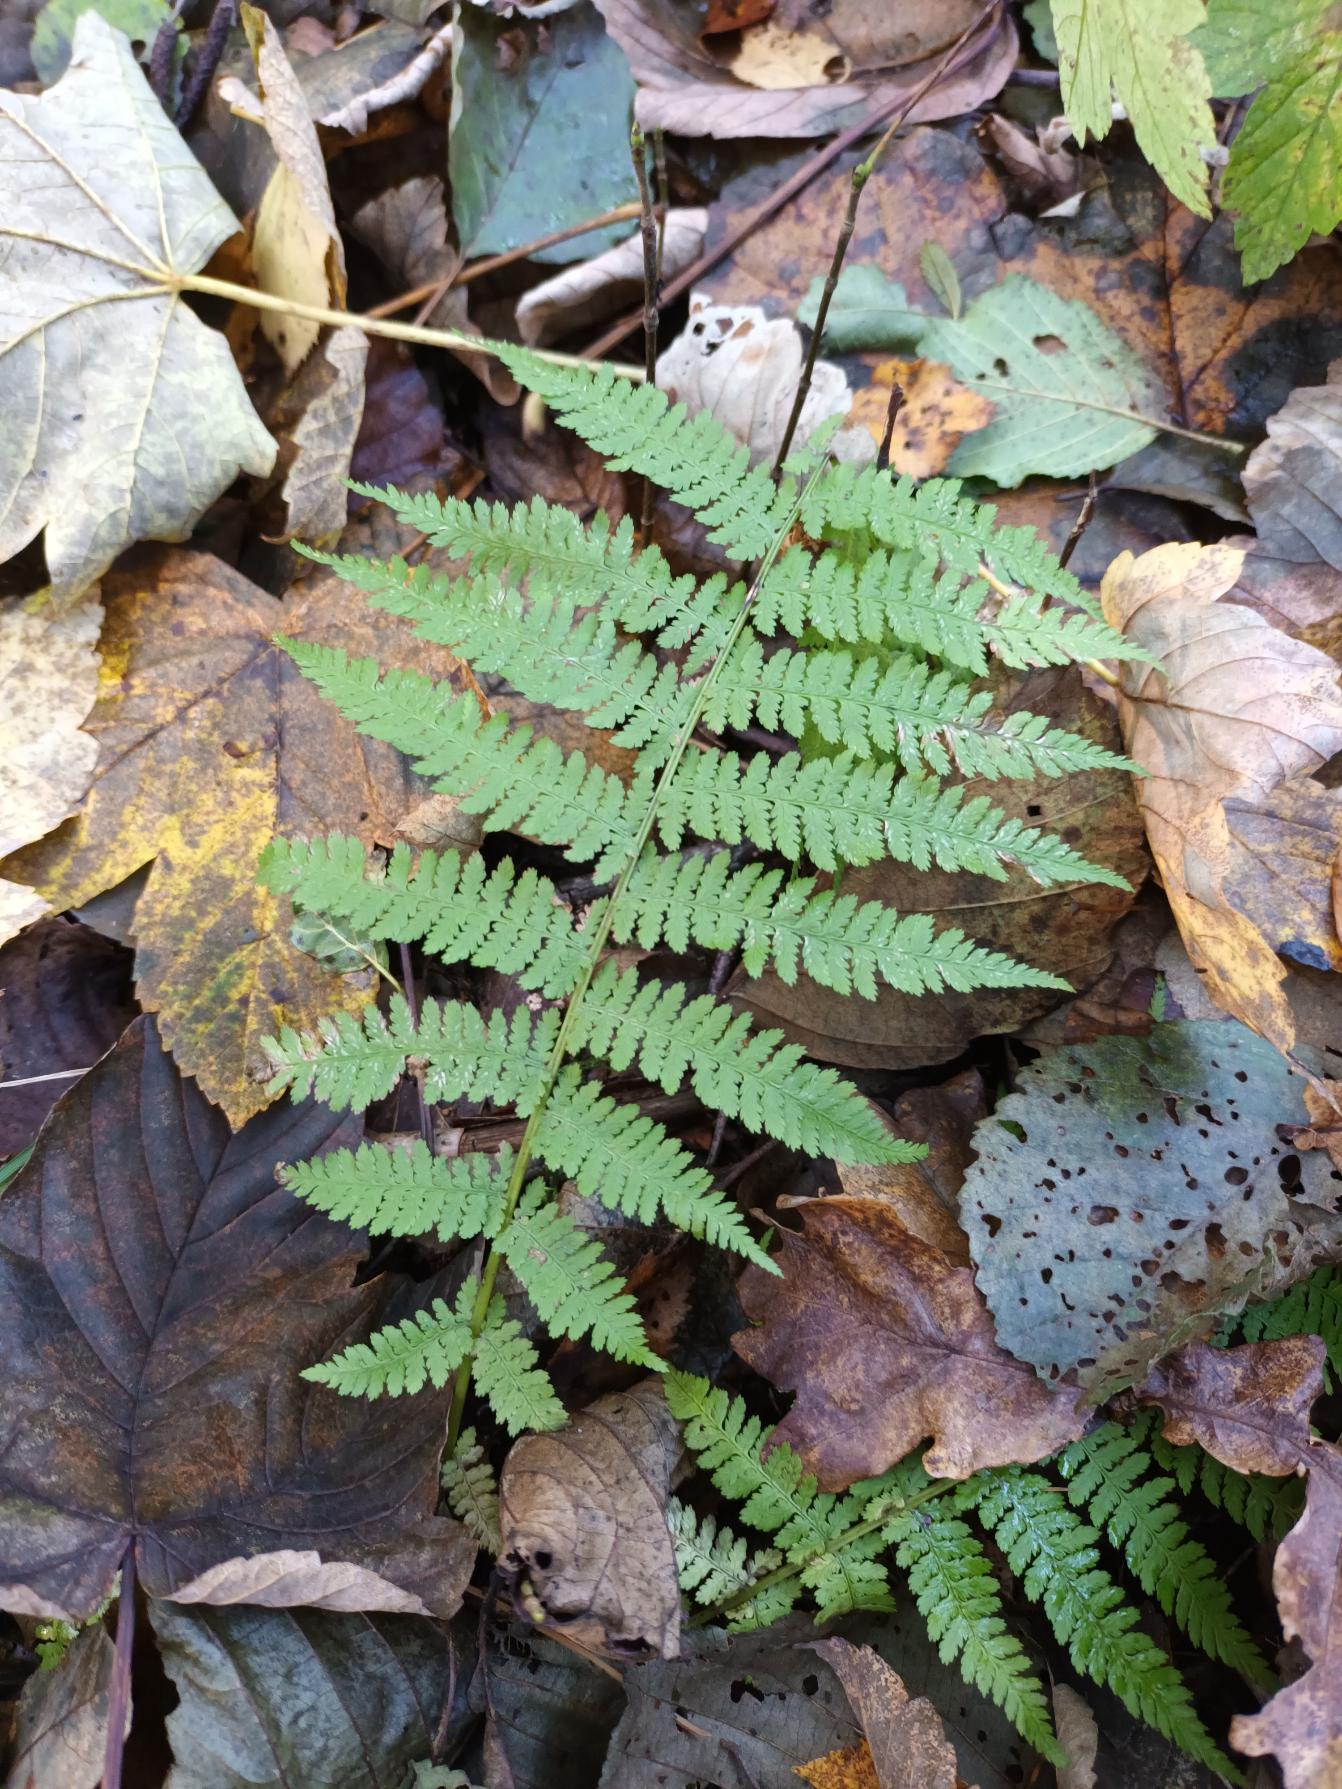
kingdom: Plantae
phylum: Tracheophyta
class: Polypodiopsida
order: Polypodiales
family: Athyriaceae
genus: Athyrium
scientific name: Athyrium filix-femina
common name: Fjerbregne
